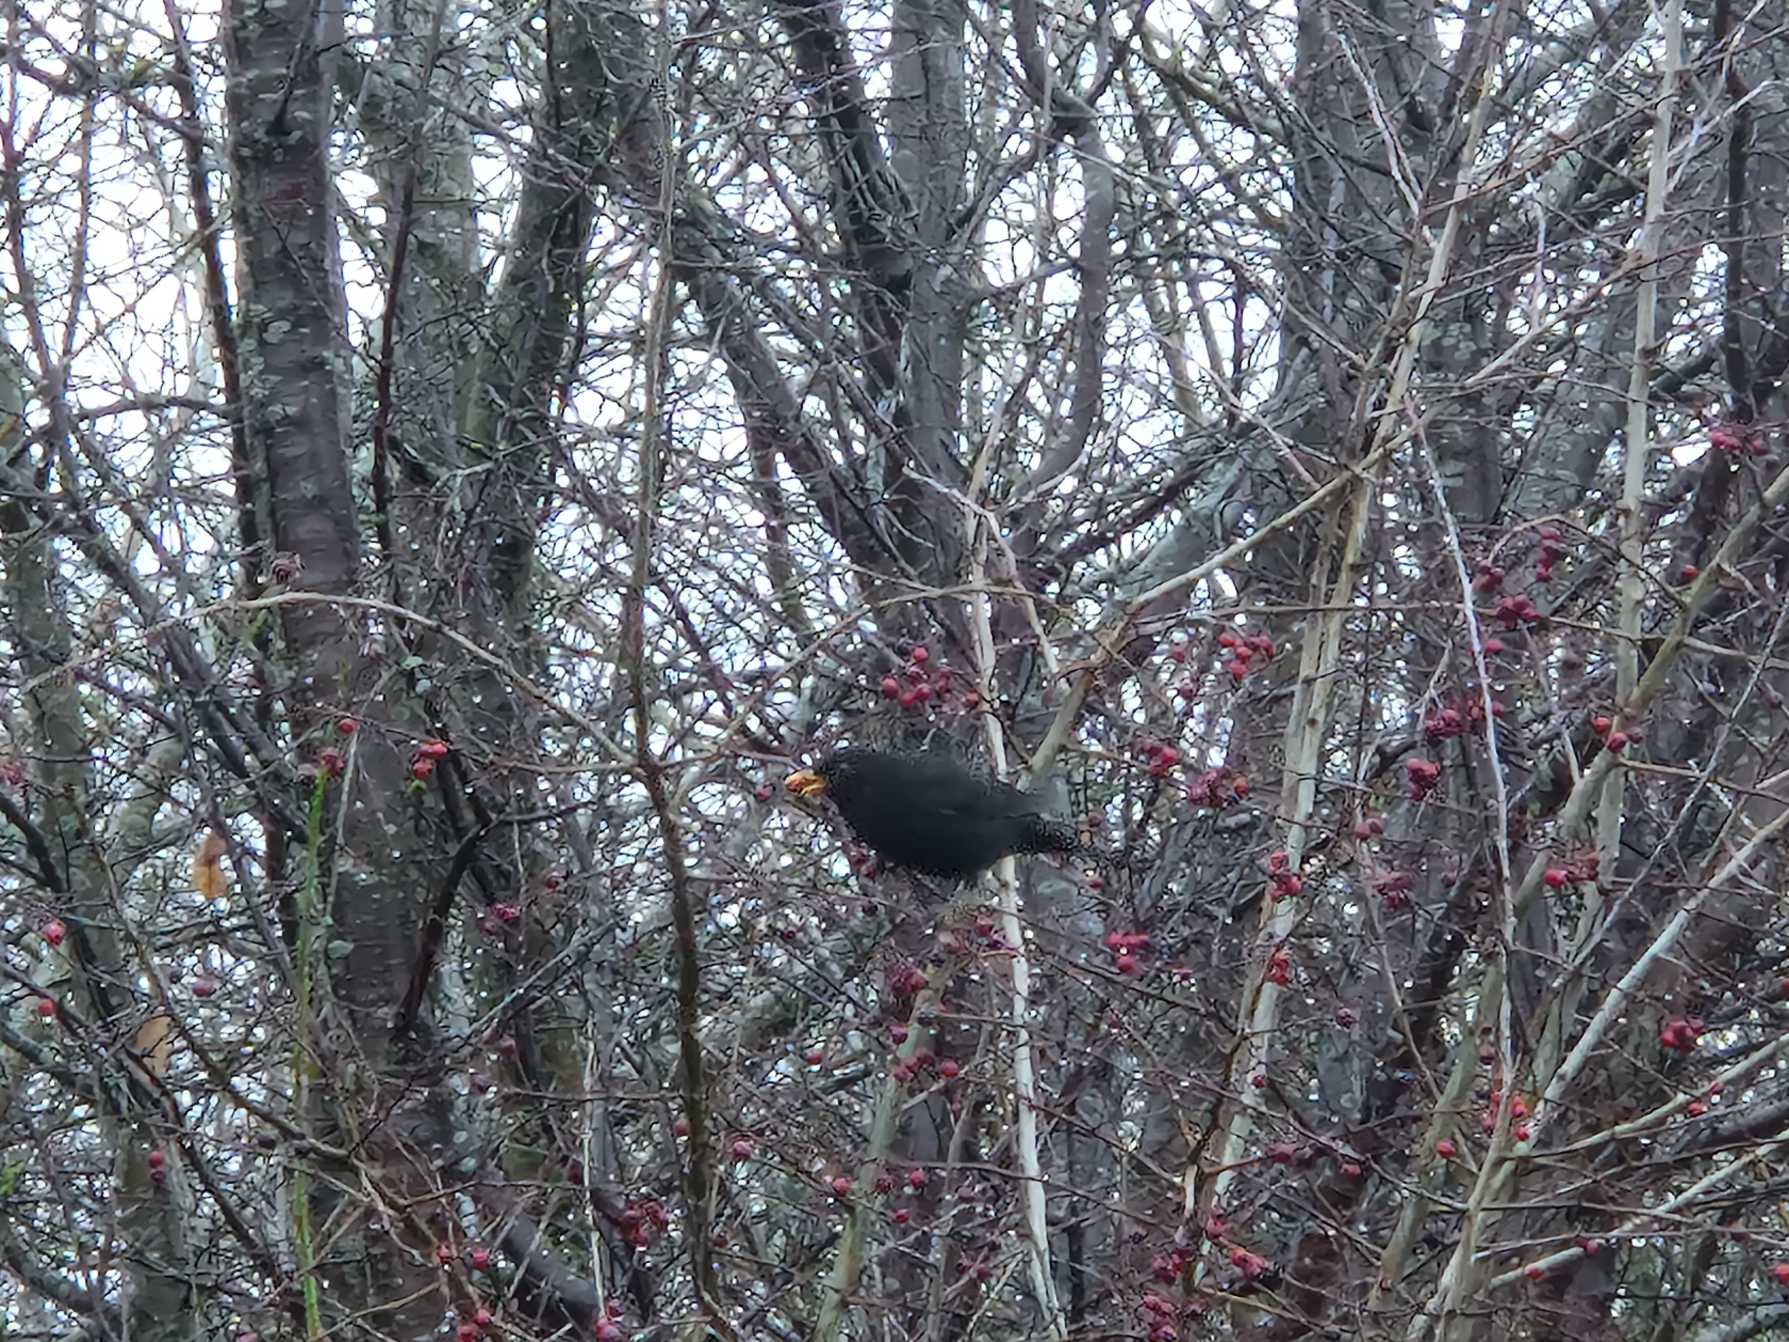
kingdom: Animalia
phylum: Chordata
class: Aves
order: Passeriformes
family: Turdidae
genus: Turdus
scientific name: Turdus merula
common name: Solsort
